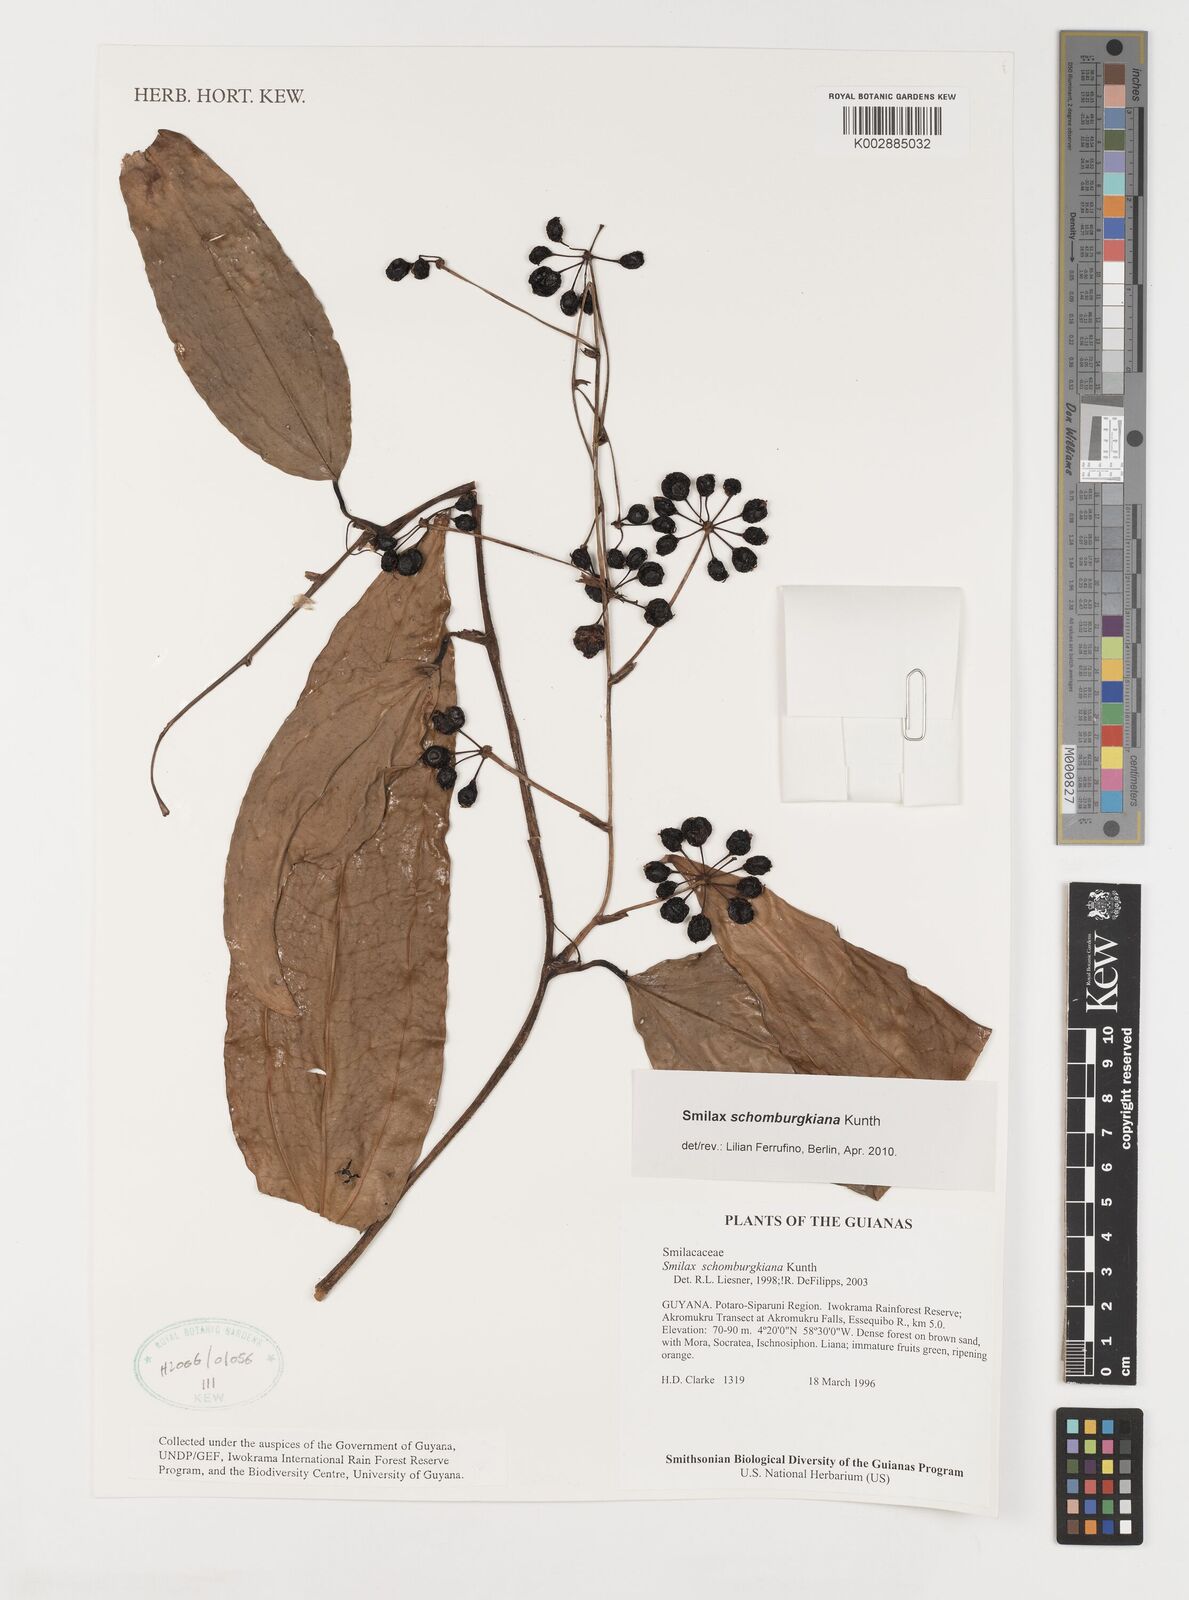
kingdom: Plantae
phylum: Tracheophyta
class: Liliopsida
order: Liliales
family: Smilacaceae
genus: Smilax
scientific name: Smilax schomburgkiana
